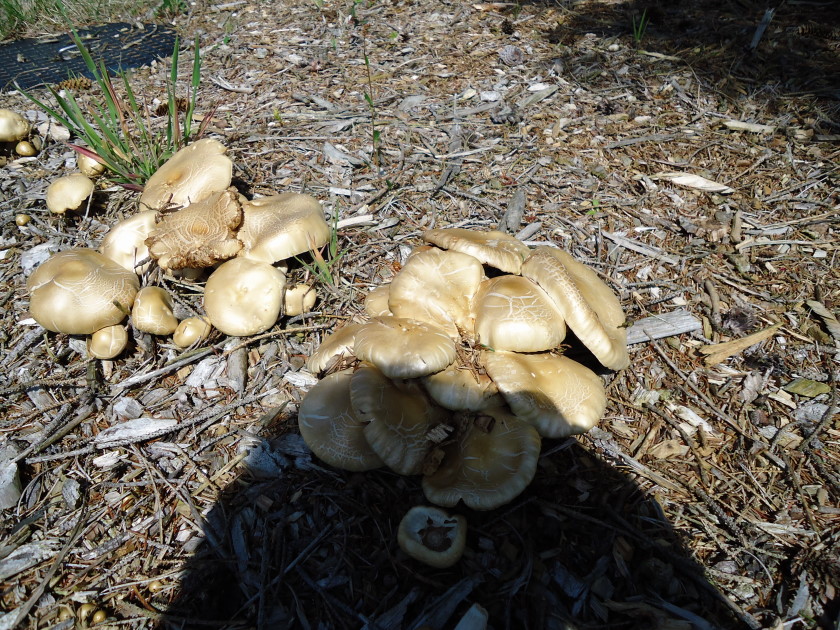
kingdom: Fungi
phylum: Basidiomycota
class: Agaricomycetes
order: Agaricales
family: Strophariaceae
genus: Agrocybe
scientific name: Agrocybe praecox
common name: tidlig agerhat
